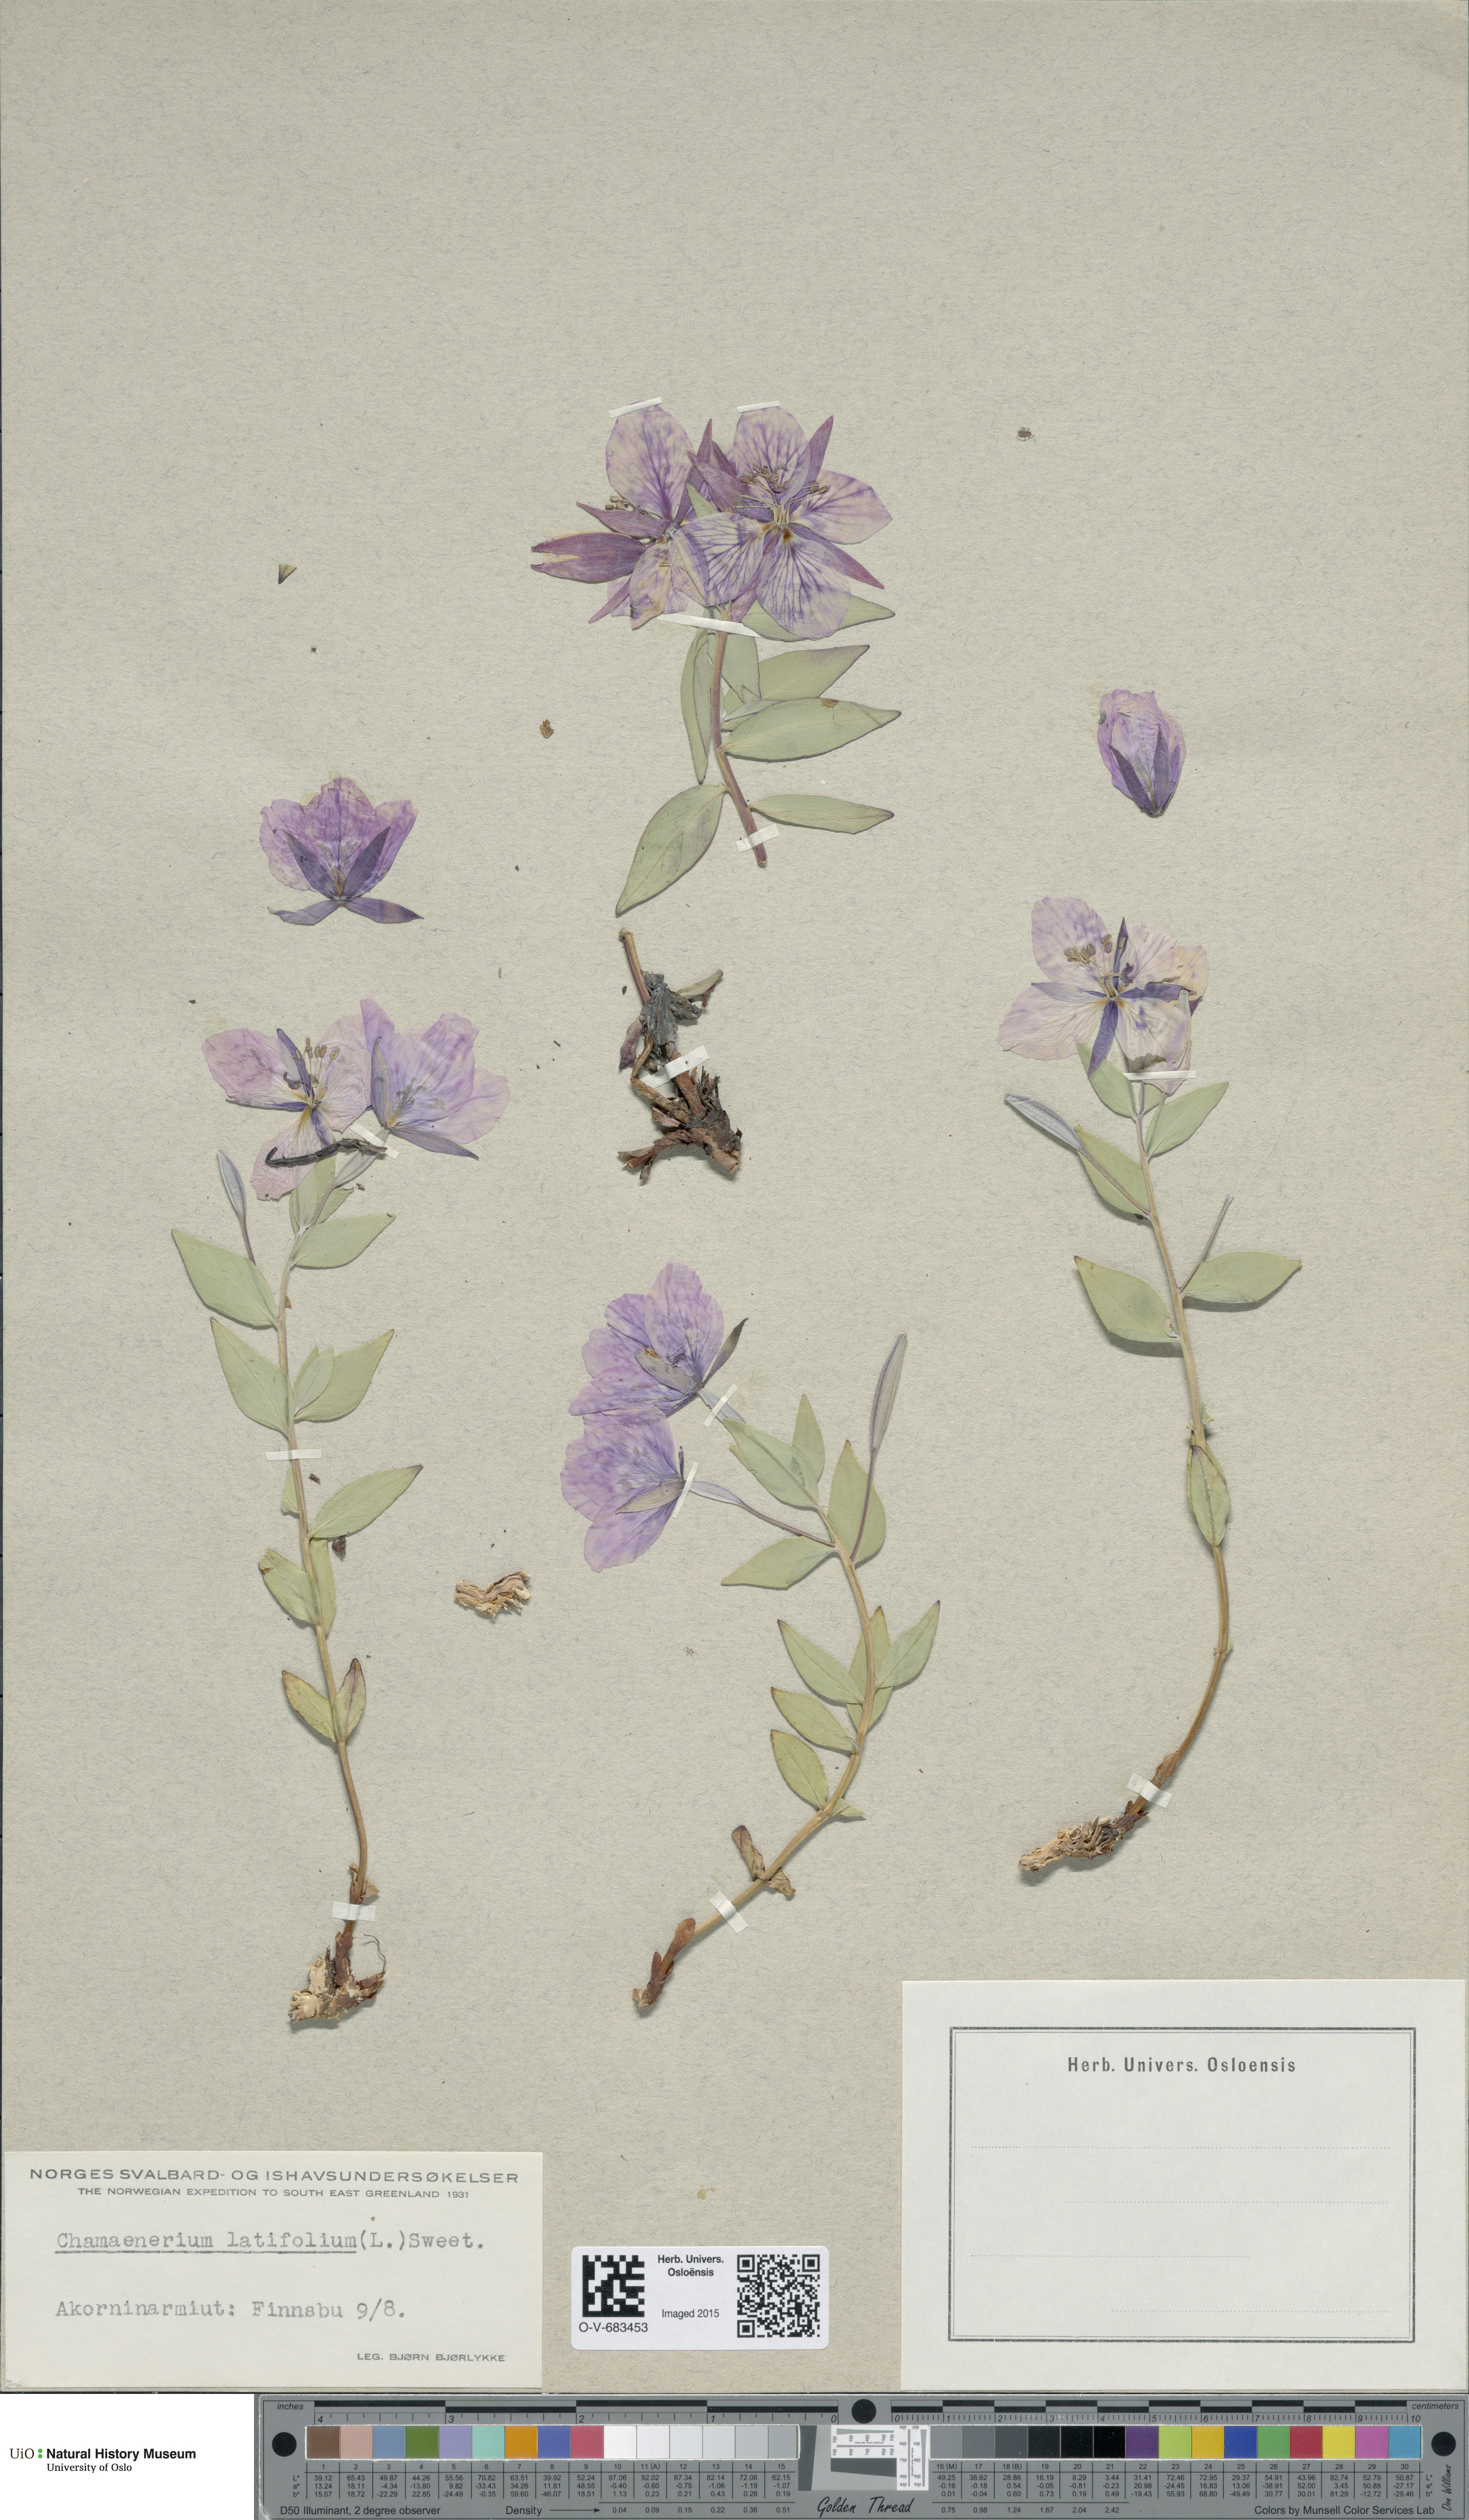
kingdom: Plantae
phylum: Tracheophyta
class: Magnoliopsida
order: Myrtales
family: Onagraceae
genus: Chamaenerion
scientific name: Chamaenerion latifolium
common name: Dwarf fireweed
